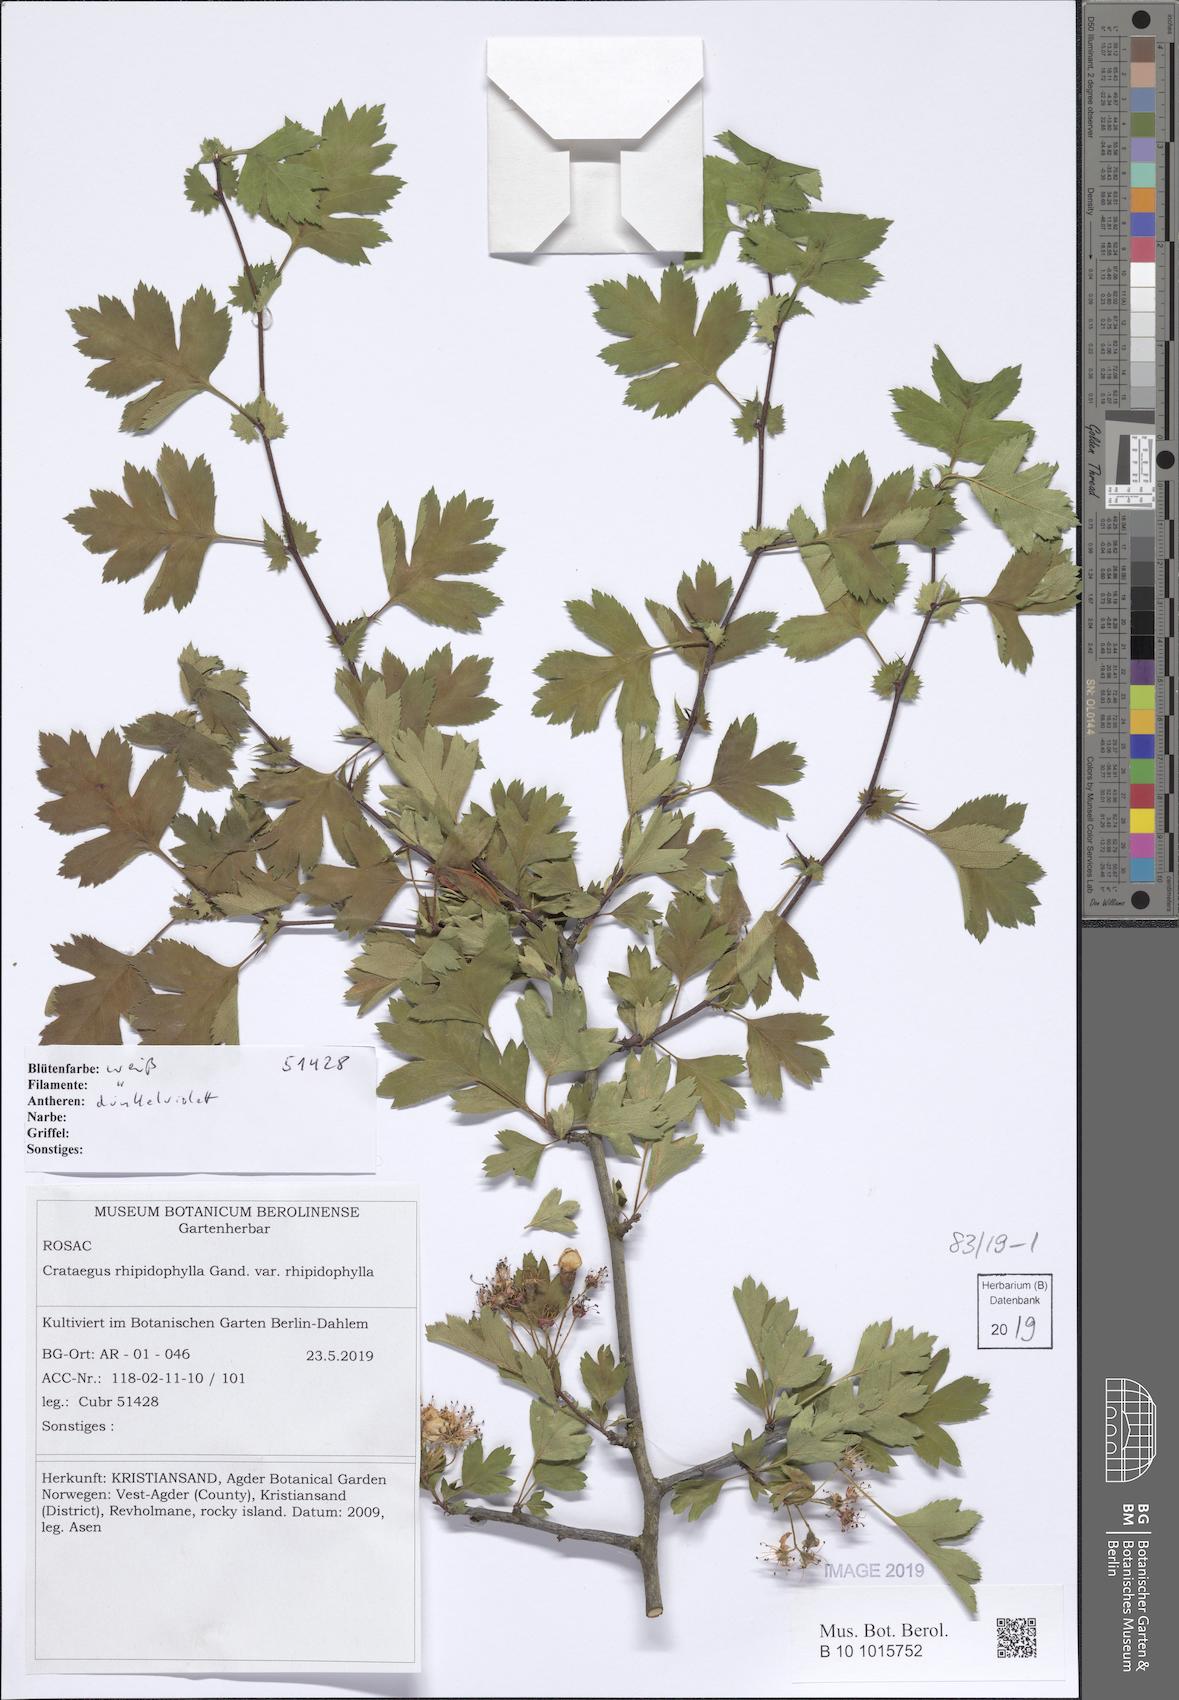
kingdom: Plantae
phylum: Tracheophyta
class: Magnoliopsida
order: Rosales
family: Rosaceae
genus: Crataegus
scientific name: Crataegus rhipidophylla
